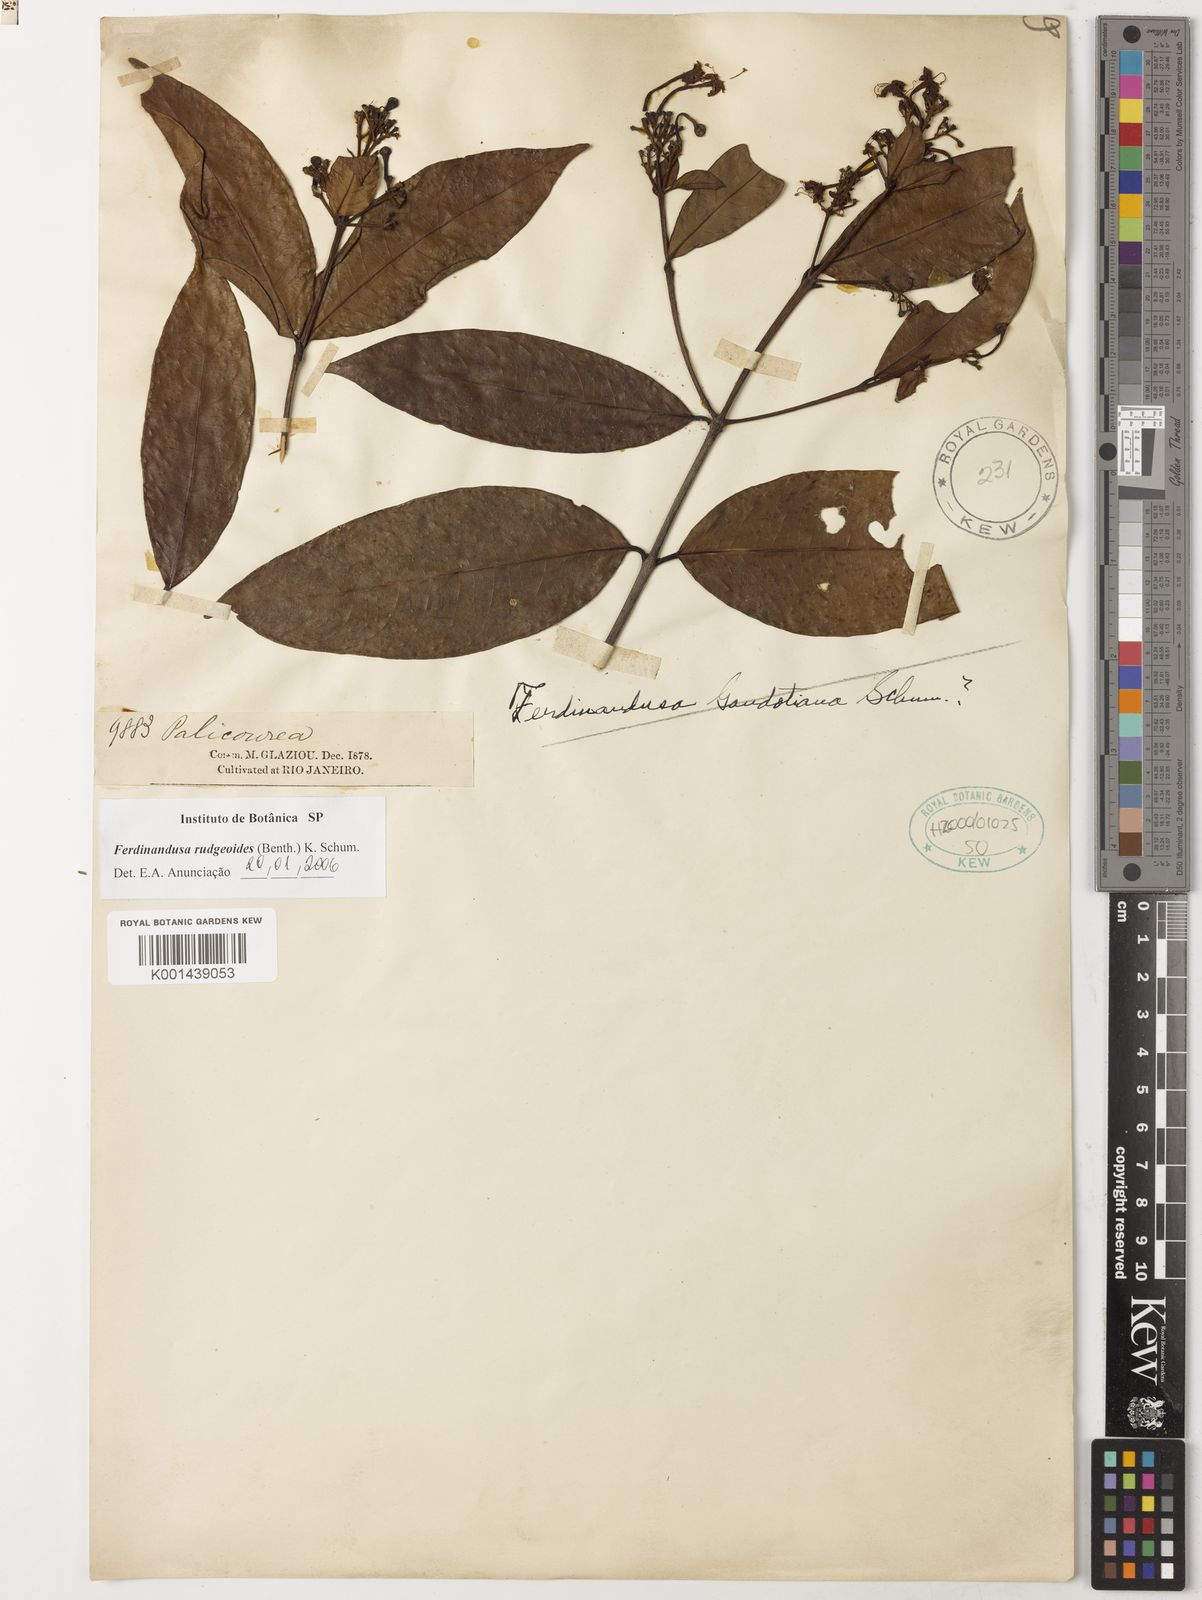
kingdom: Plantae
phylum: Tracheophyta
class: Magnoliopsida
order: Gentianales
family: Rubiaceae
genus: Ferdinandusa
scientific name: Ferdinandusa rudgeoides
